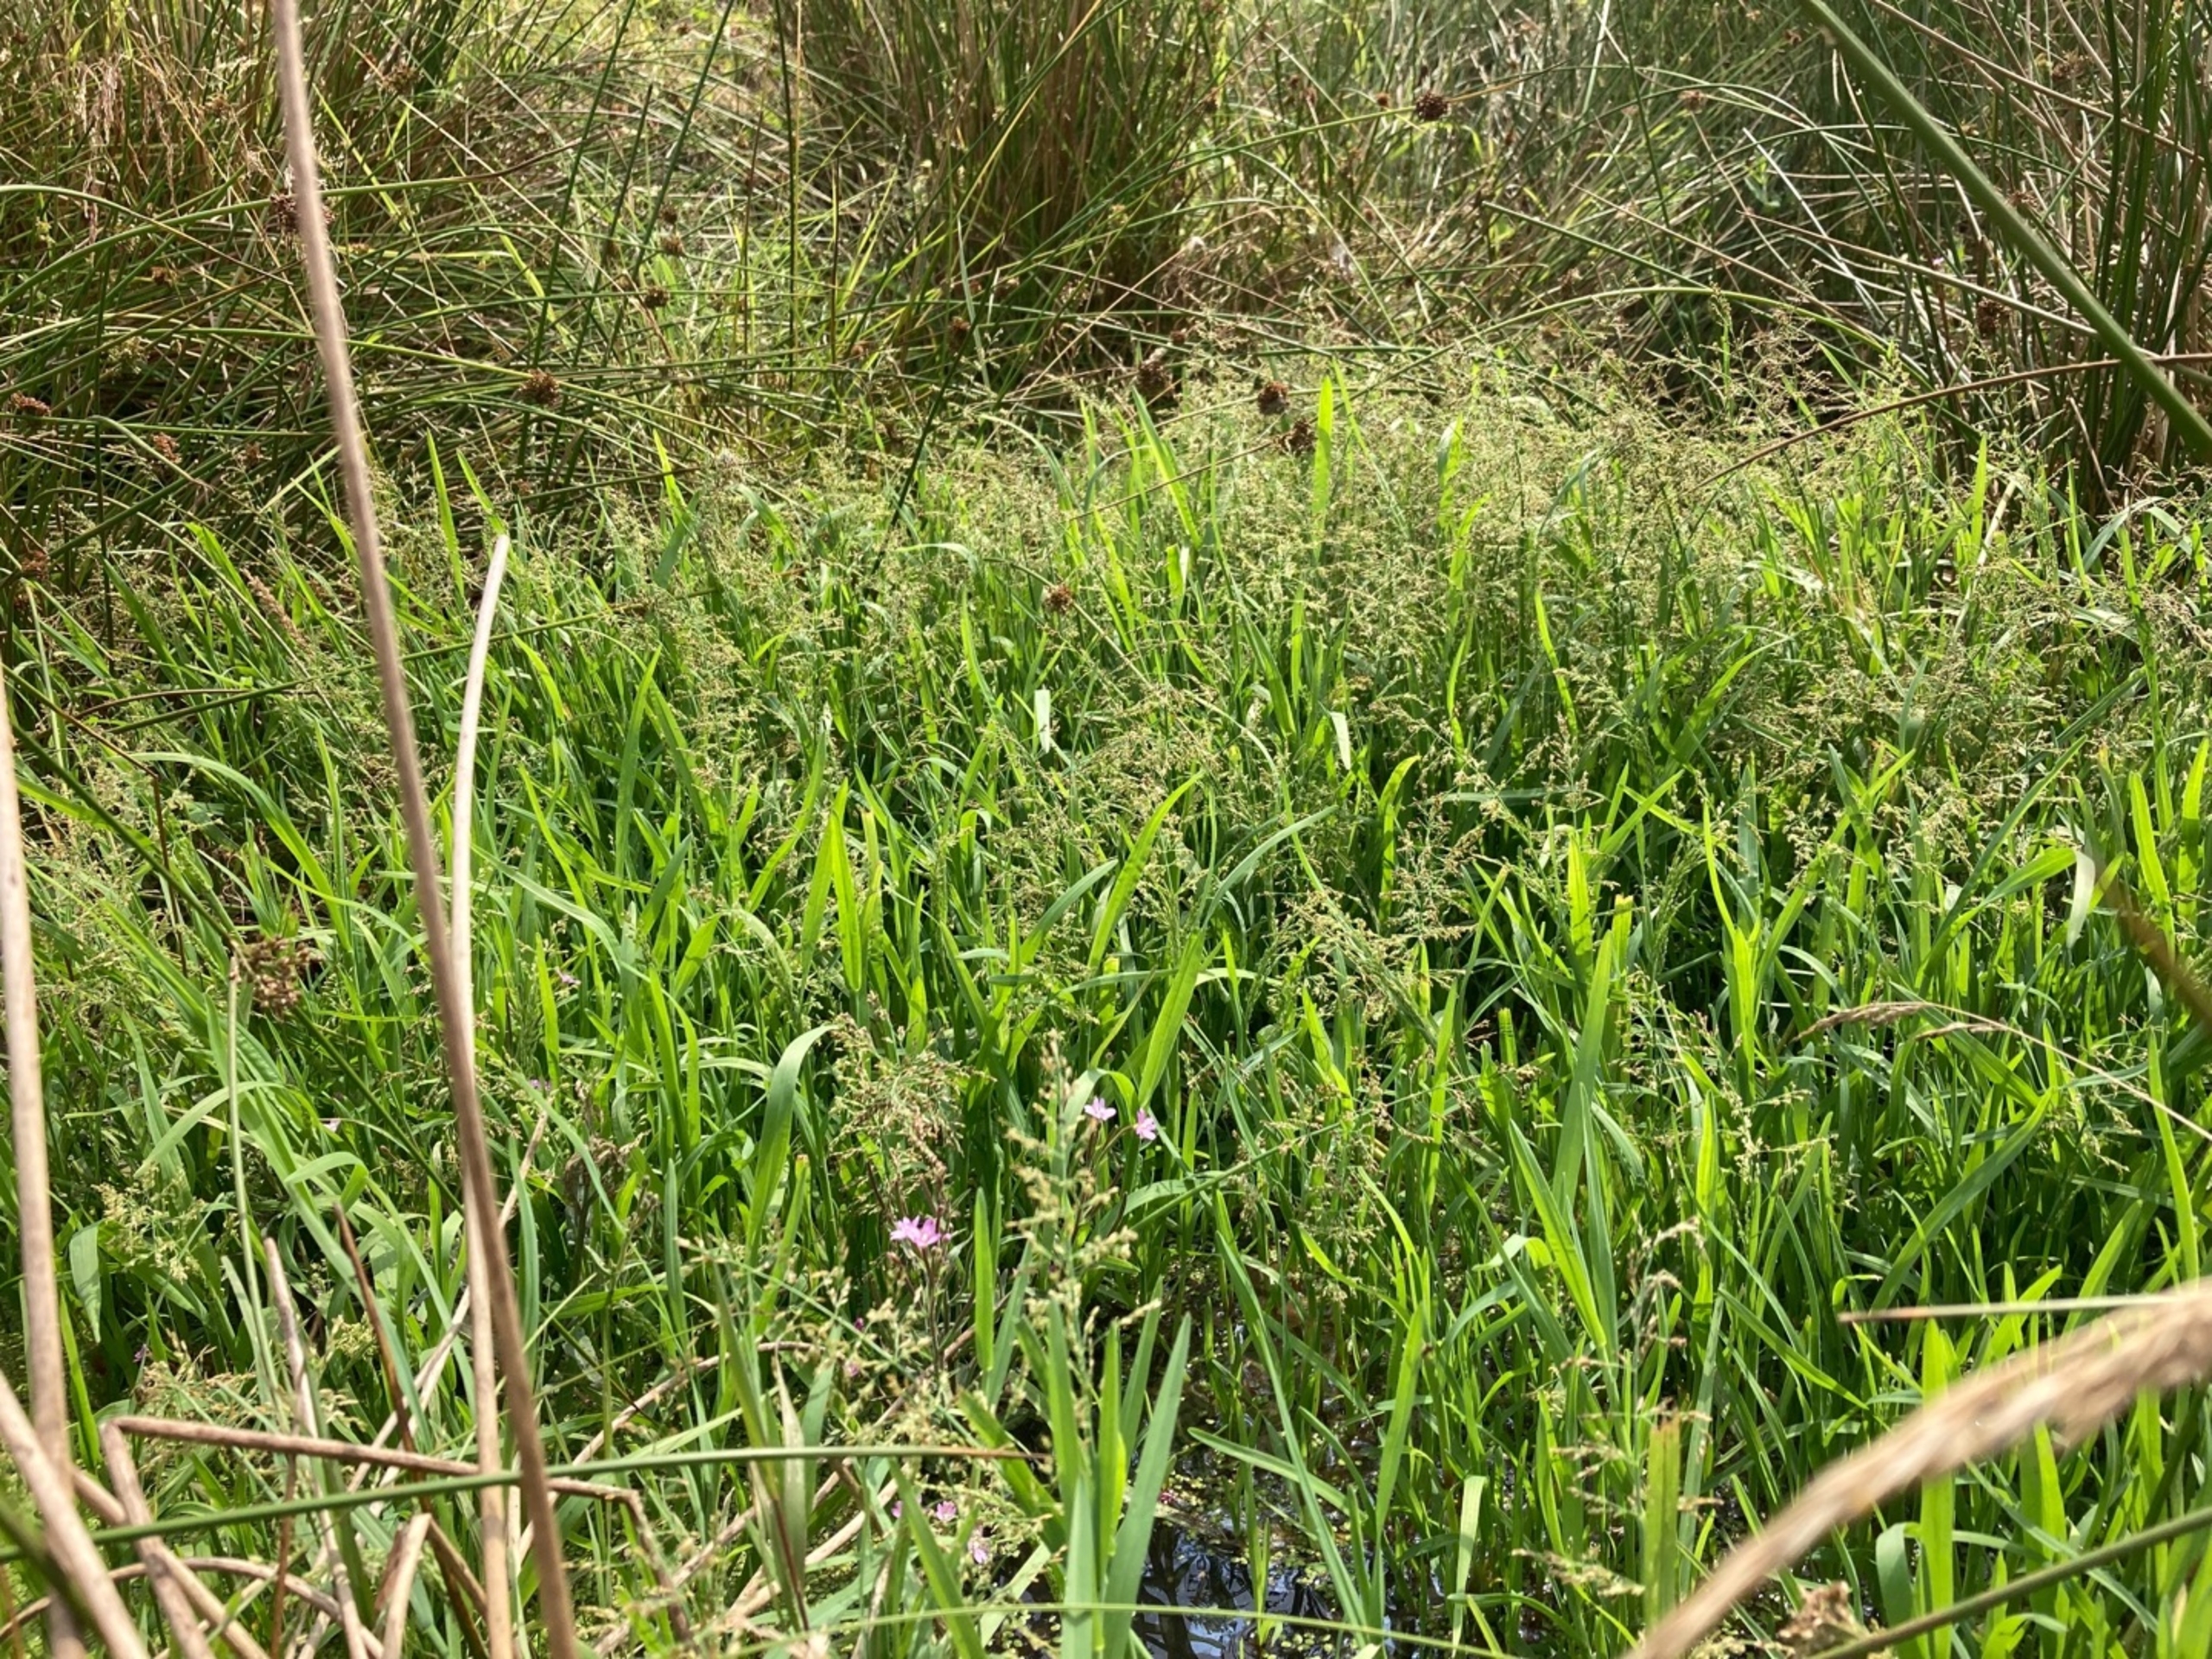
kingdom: Plantae
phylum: Tracheophyta
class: Liliopsida
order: Poales
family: Poaceae
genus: Catabrosa
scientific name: Catabrosa aquatica
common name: Tæppegræs
